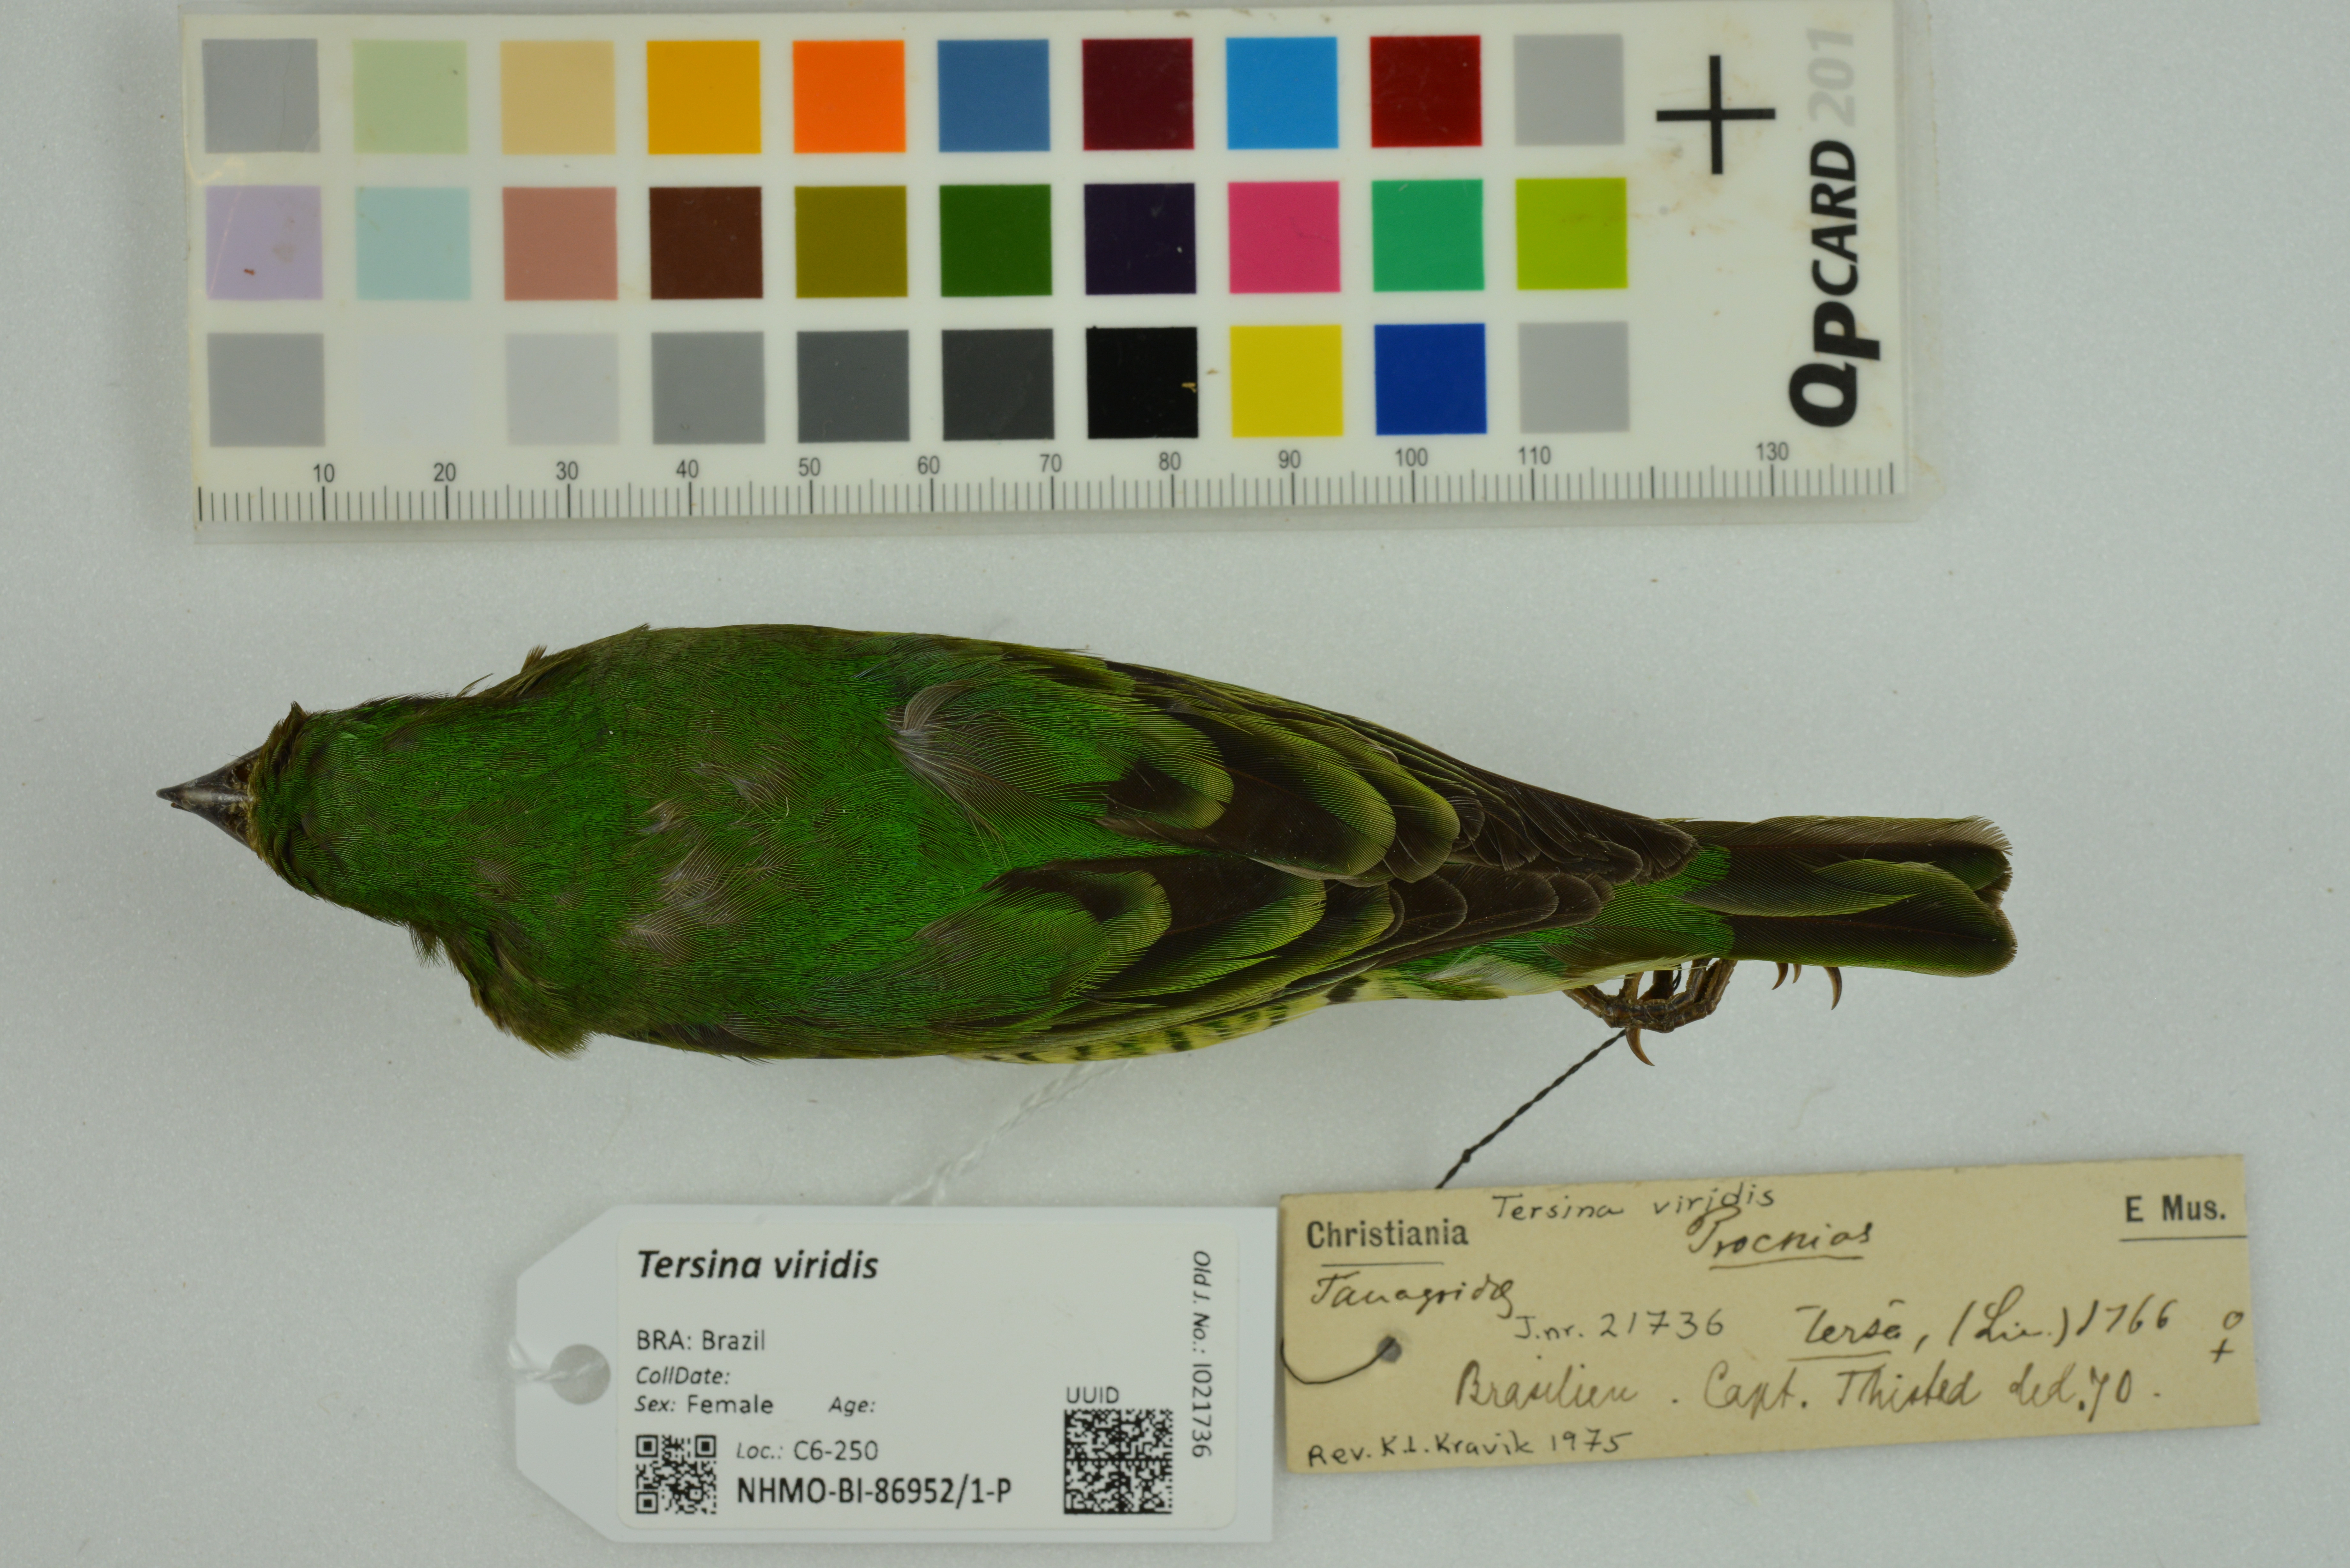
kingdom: Animalia
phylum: Chordata
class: Aves
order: Passeriformes
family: Thraupidae
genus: Tersina
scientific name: Tersina viridis
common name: Swallow tanager
